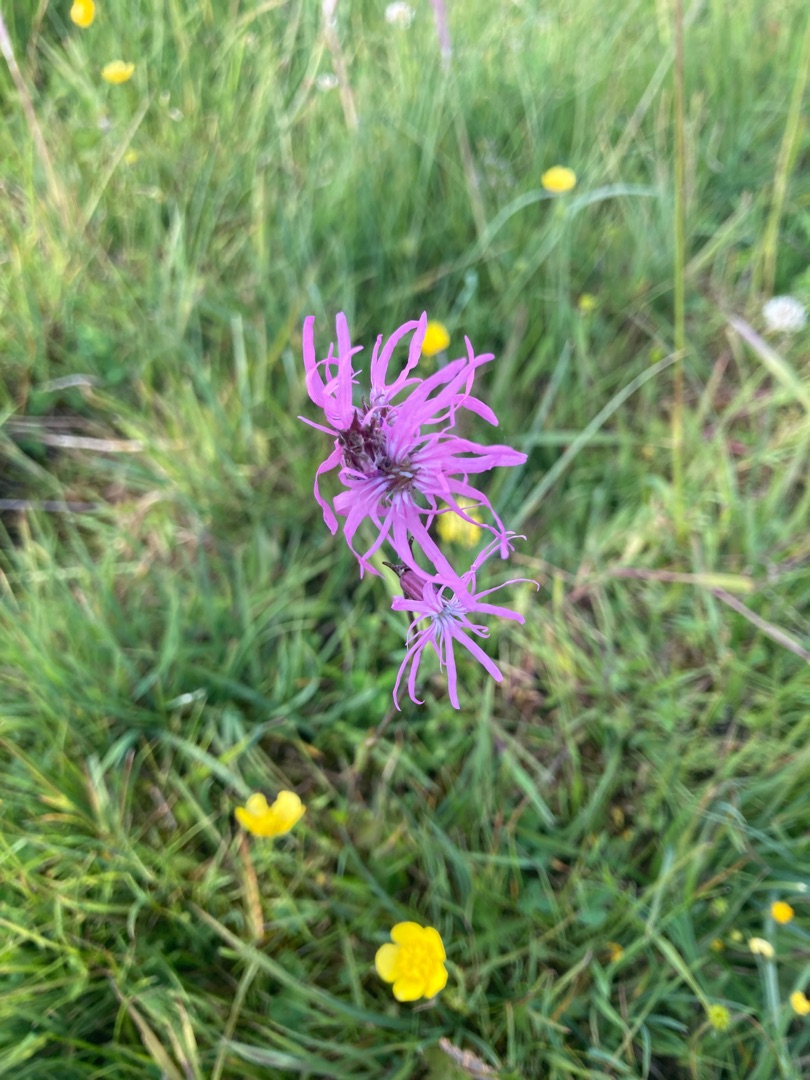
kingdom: Plantae
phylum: Tracheophyta
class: Magnoliopsida
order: Caryophyllales
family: Caryophyllaceae
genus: Silene
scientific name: Silene flos-cuculi
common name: Trævlekrone
